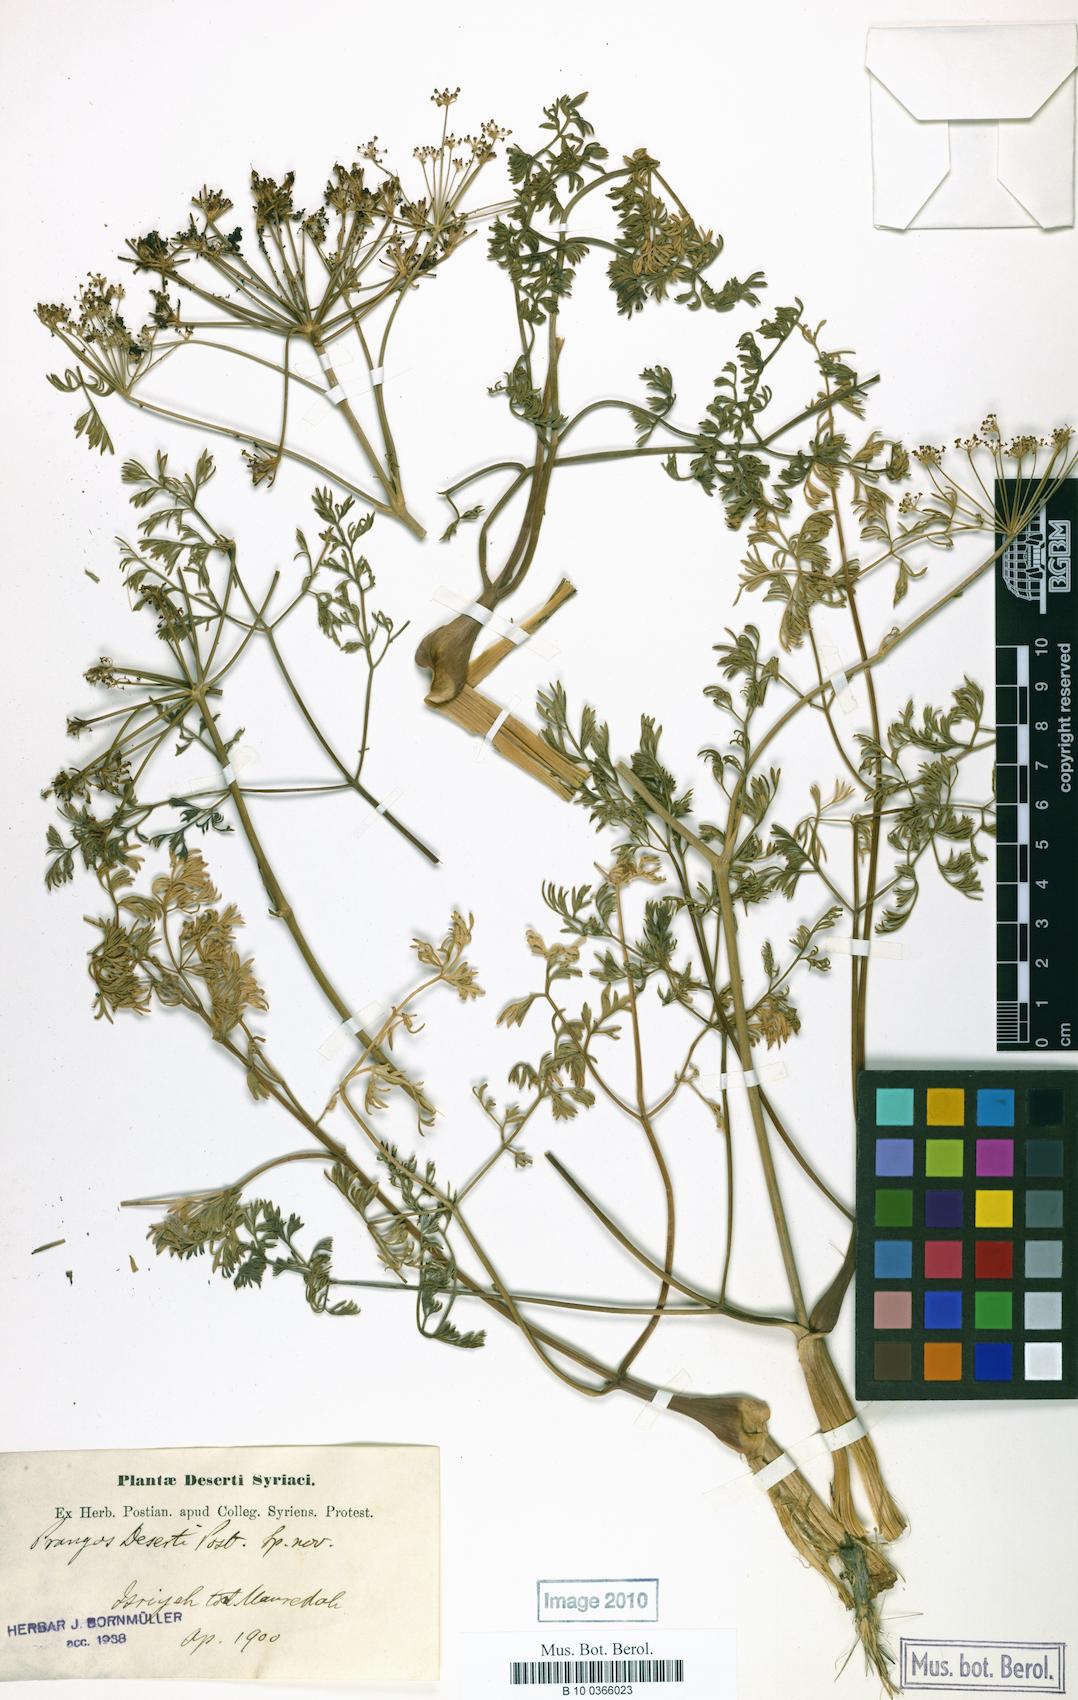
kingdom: Plantae
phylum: Tracheophyta
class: Magnoliopsida
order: Apiales
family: Apiaceae
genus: Prangos
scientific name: Prangos peucedanifolia
